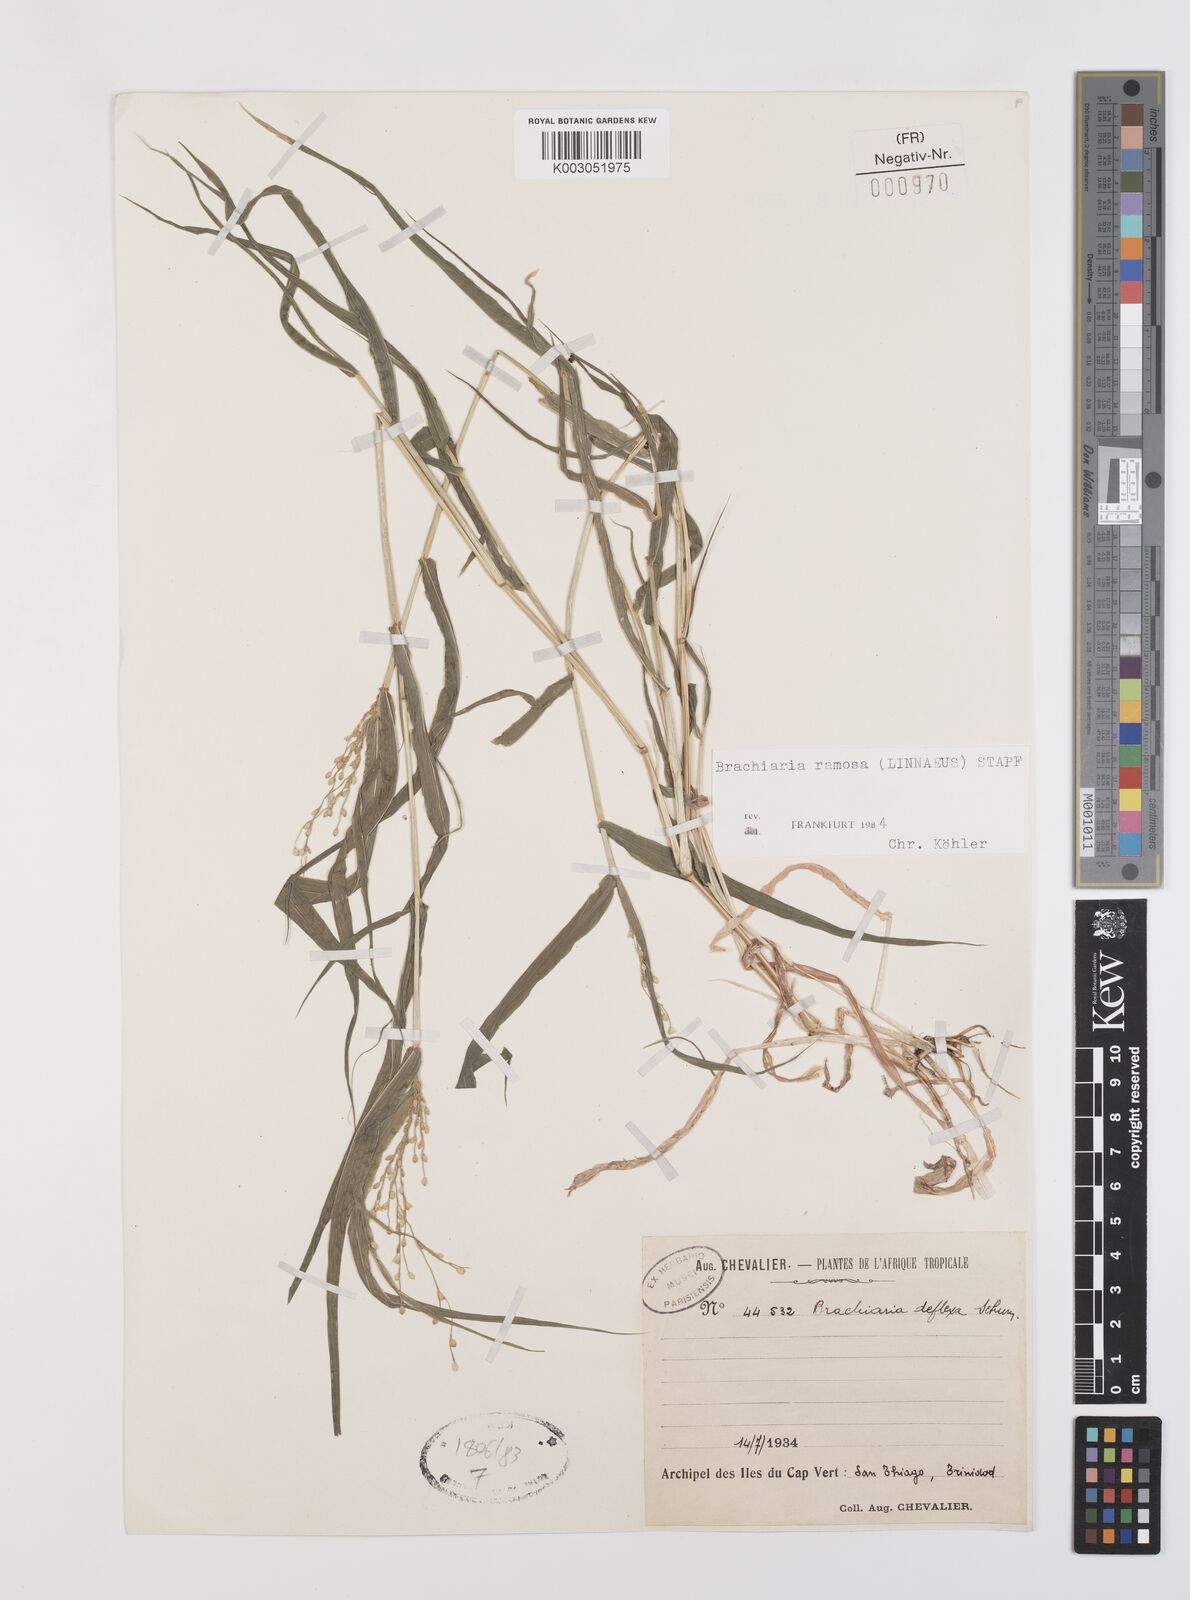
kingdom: Plantae
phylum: Tracheophyta
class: Liliopsida
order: Poales
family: Poaceae
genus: Urochloa
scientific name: Urochloa ramosa
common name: Browntop millet
